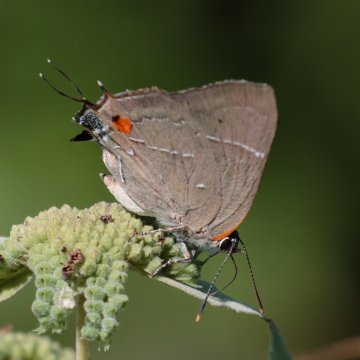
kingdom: Animalia
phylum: Arthropoda
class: Insecta
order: Lepidoptera
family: Lycaenidae
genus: Parrhasius
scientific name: Parrhasius m-album
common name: White-m Hairstreak
